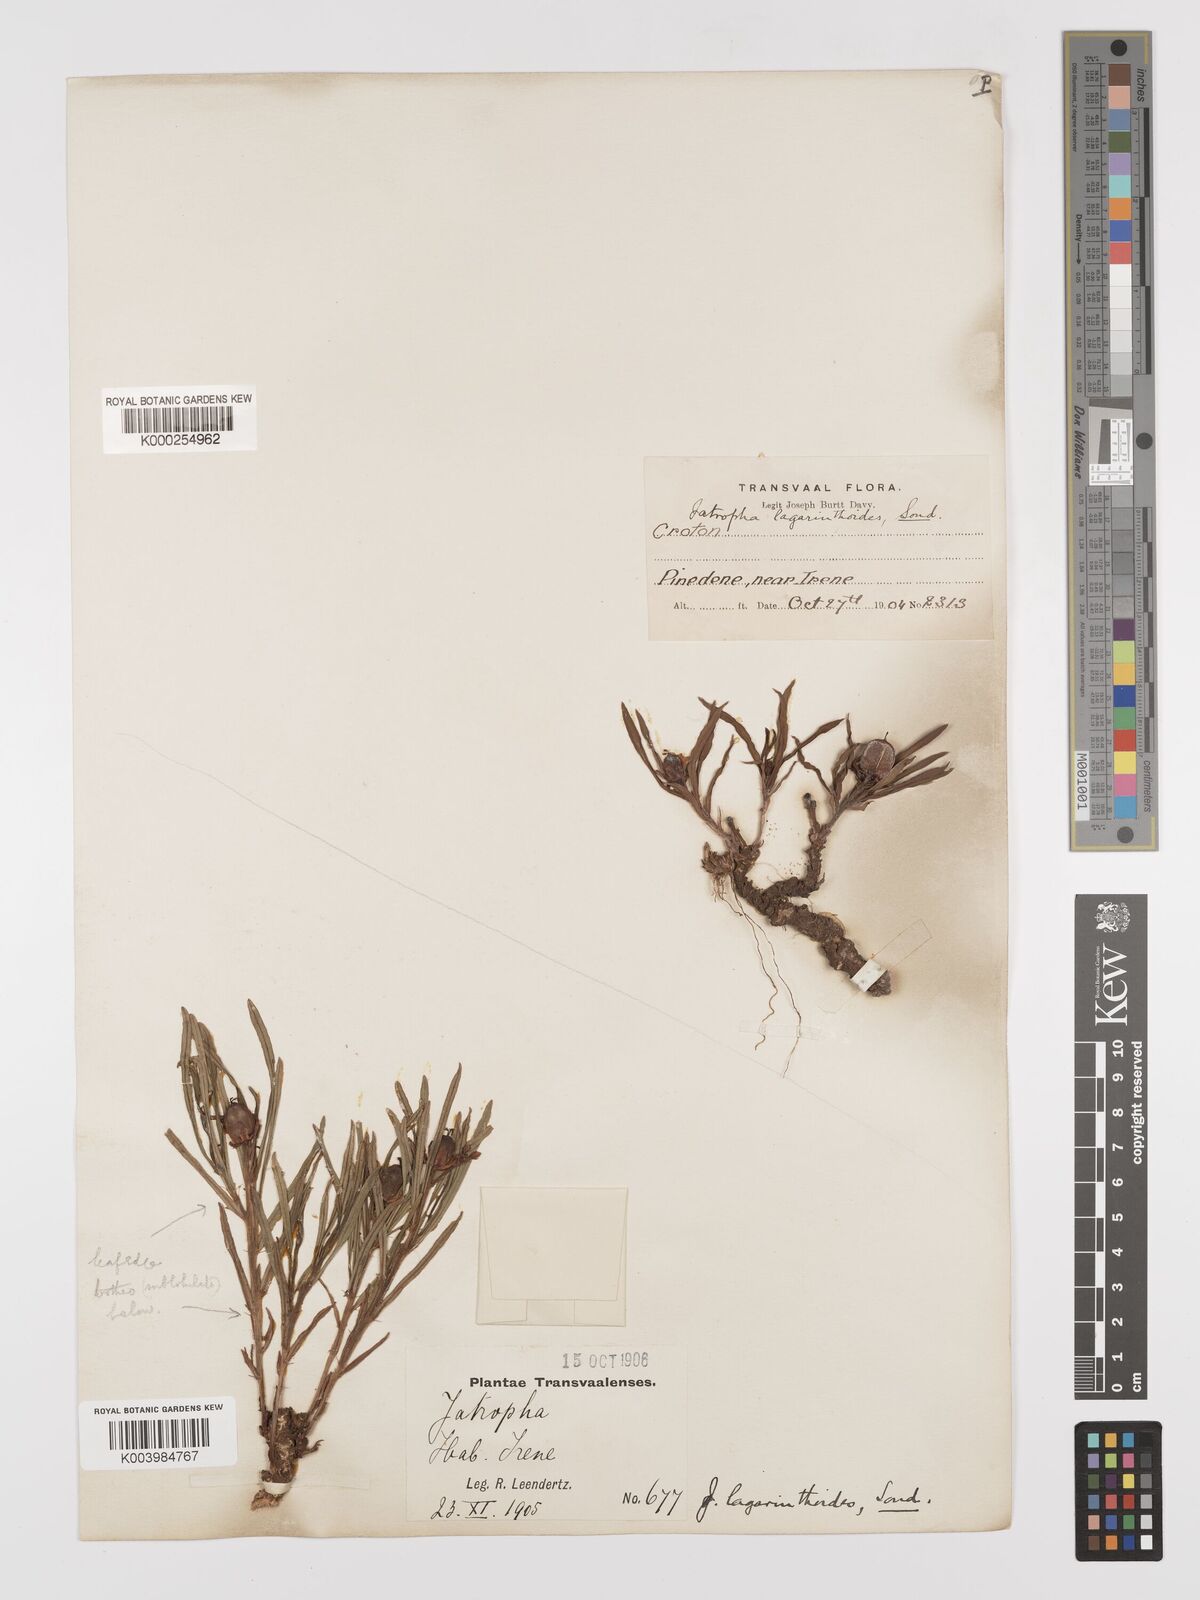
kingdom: Plantae
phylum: Tracheophyta
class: Magnoliopsida
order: Malpighiales
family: Euphorbiaceae
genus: Jatropha
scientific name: Jatropha lagarinthoides
